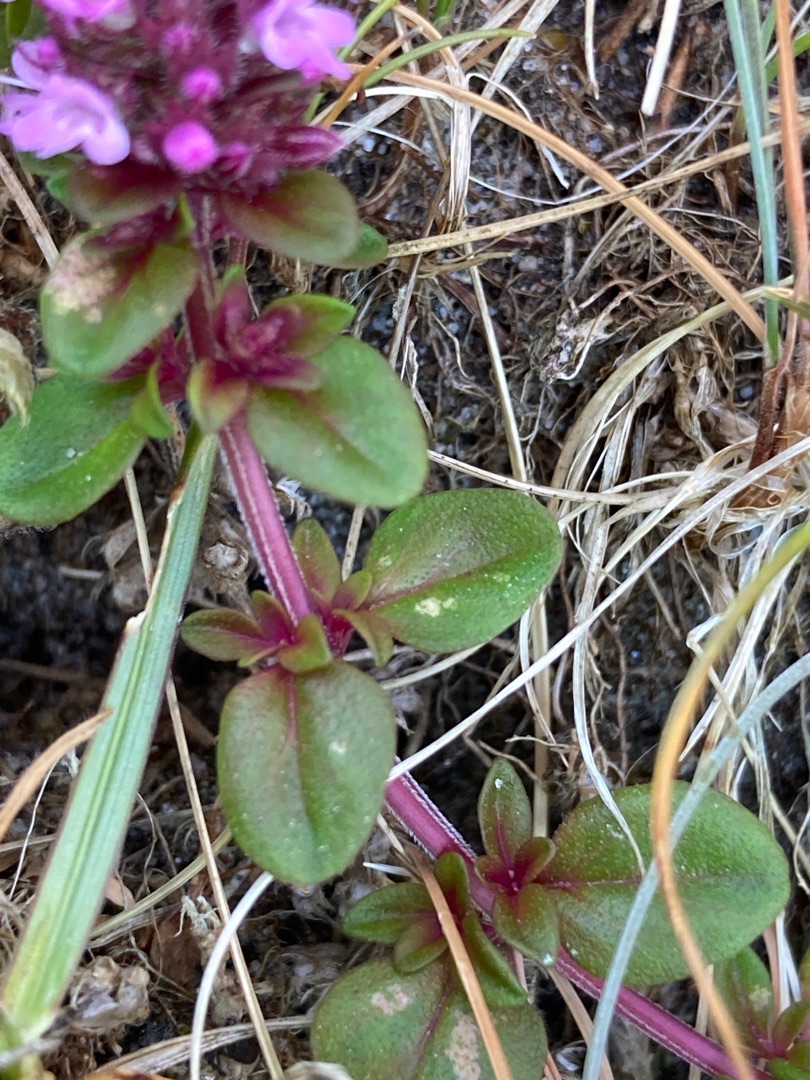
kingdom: Plantae
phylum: Tracheophyta
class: Magnoliopsida
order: Lamiales
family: Lamiaceae
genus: Thymus
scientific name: Thymus pulegioides
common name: Bredbladet timian
